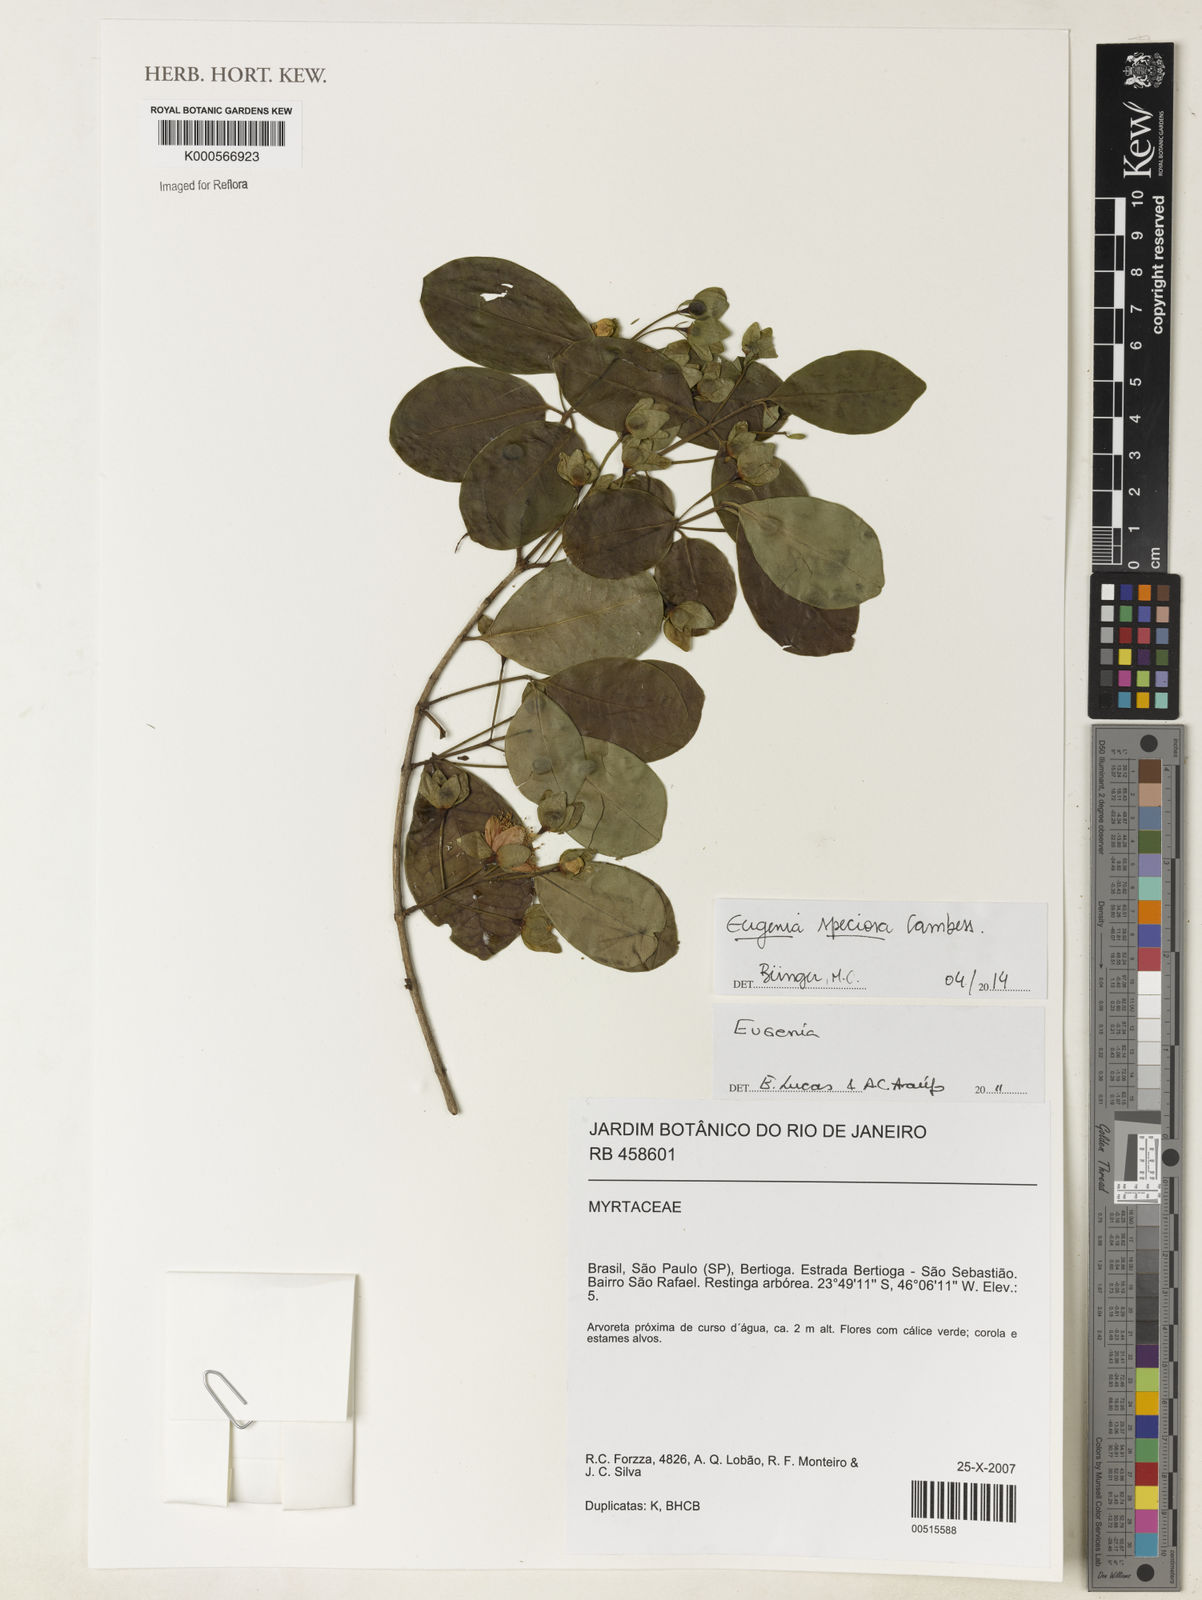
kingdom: Plantae
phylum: Tracheophyta
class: Magnoliopsida
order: Myrtales
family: Myrtaceae
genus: Eugenia
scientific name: Eugenia speciosa
